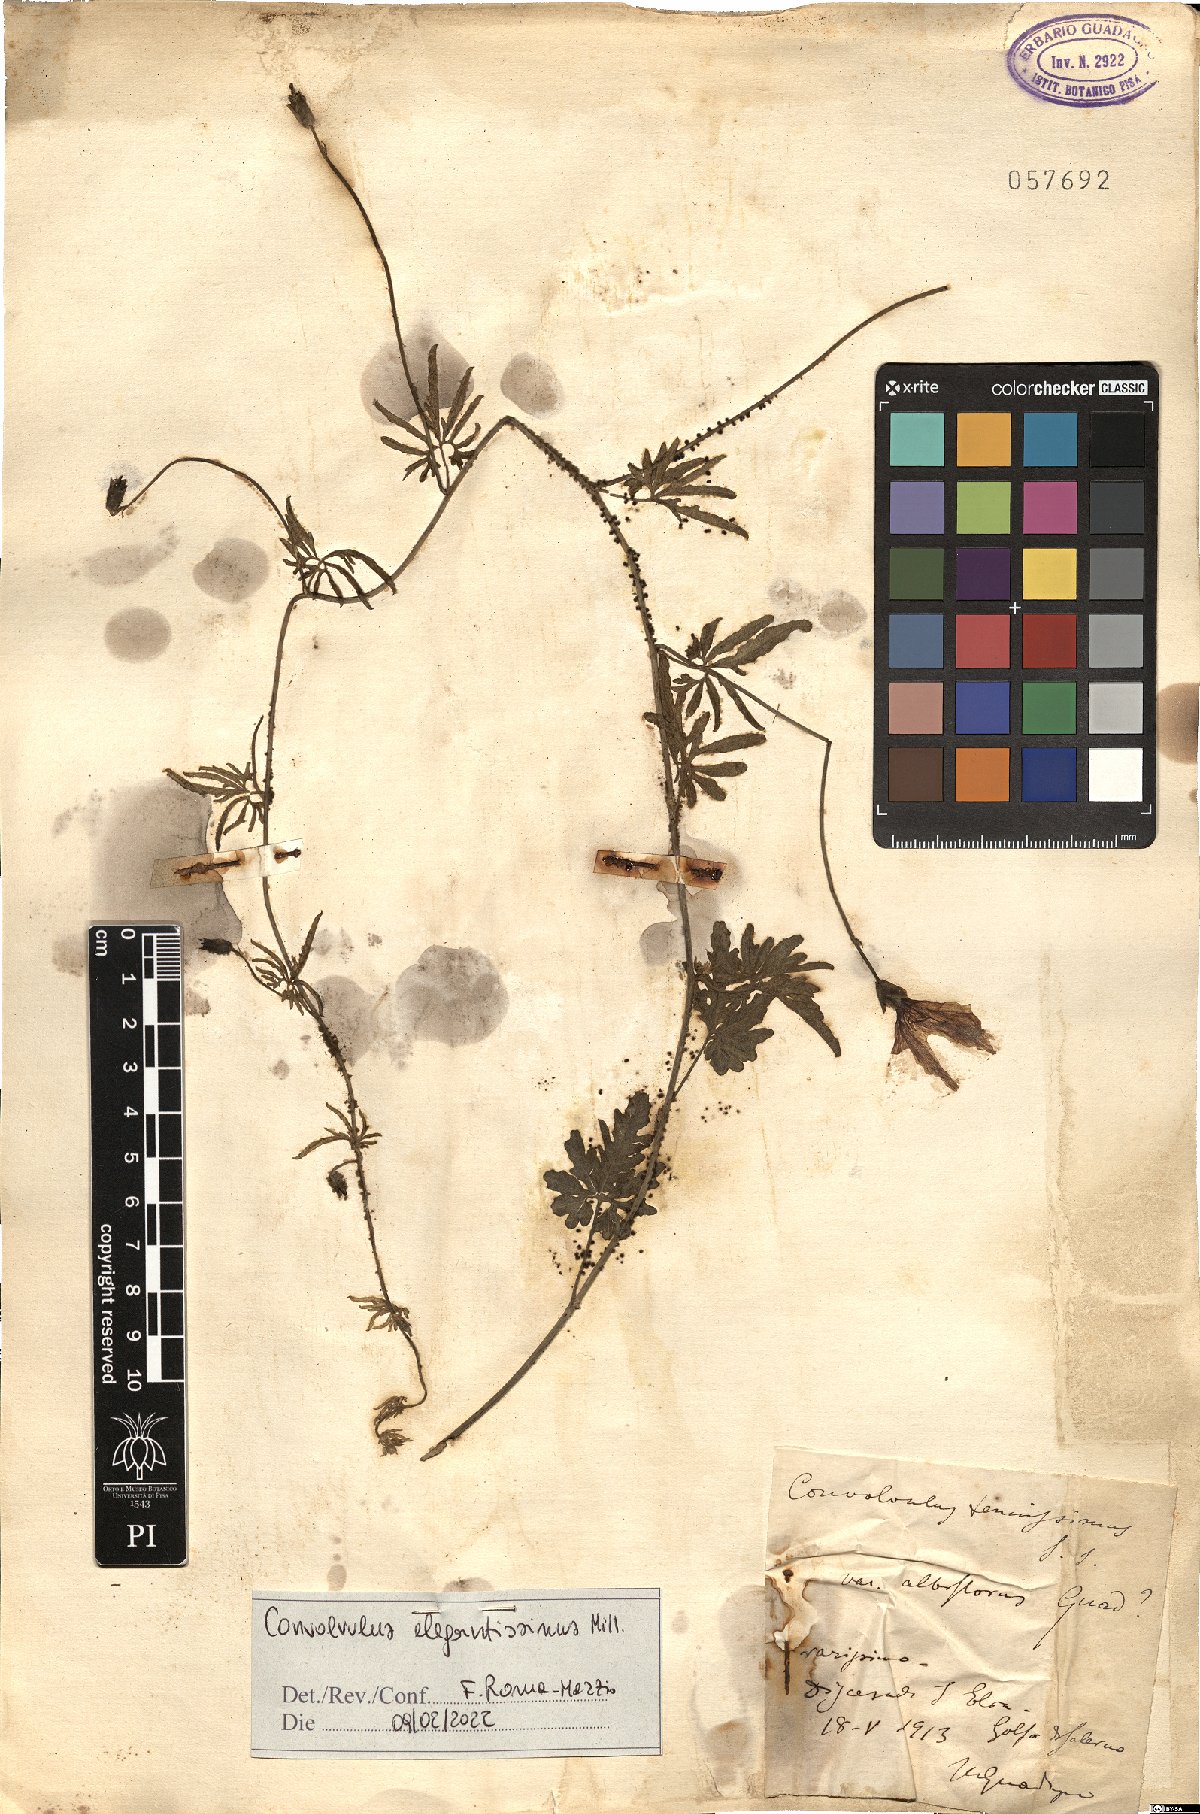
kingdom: Plantae
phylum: Tracheophyta
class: Magnoliopsida
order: Solanales
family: Convolvulaceae
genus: Convolvulus
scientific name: Convolvulus elegantissimus
